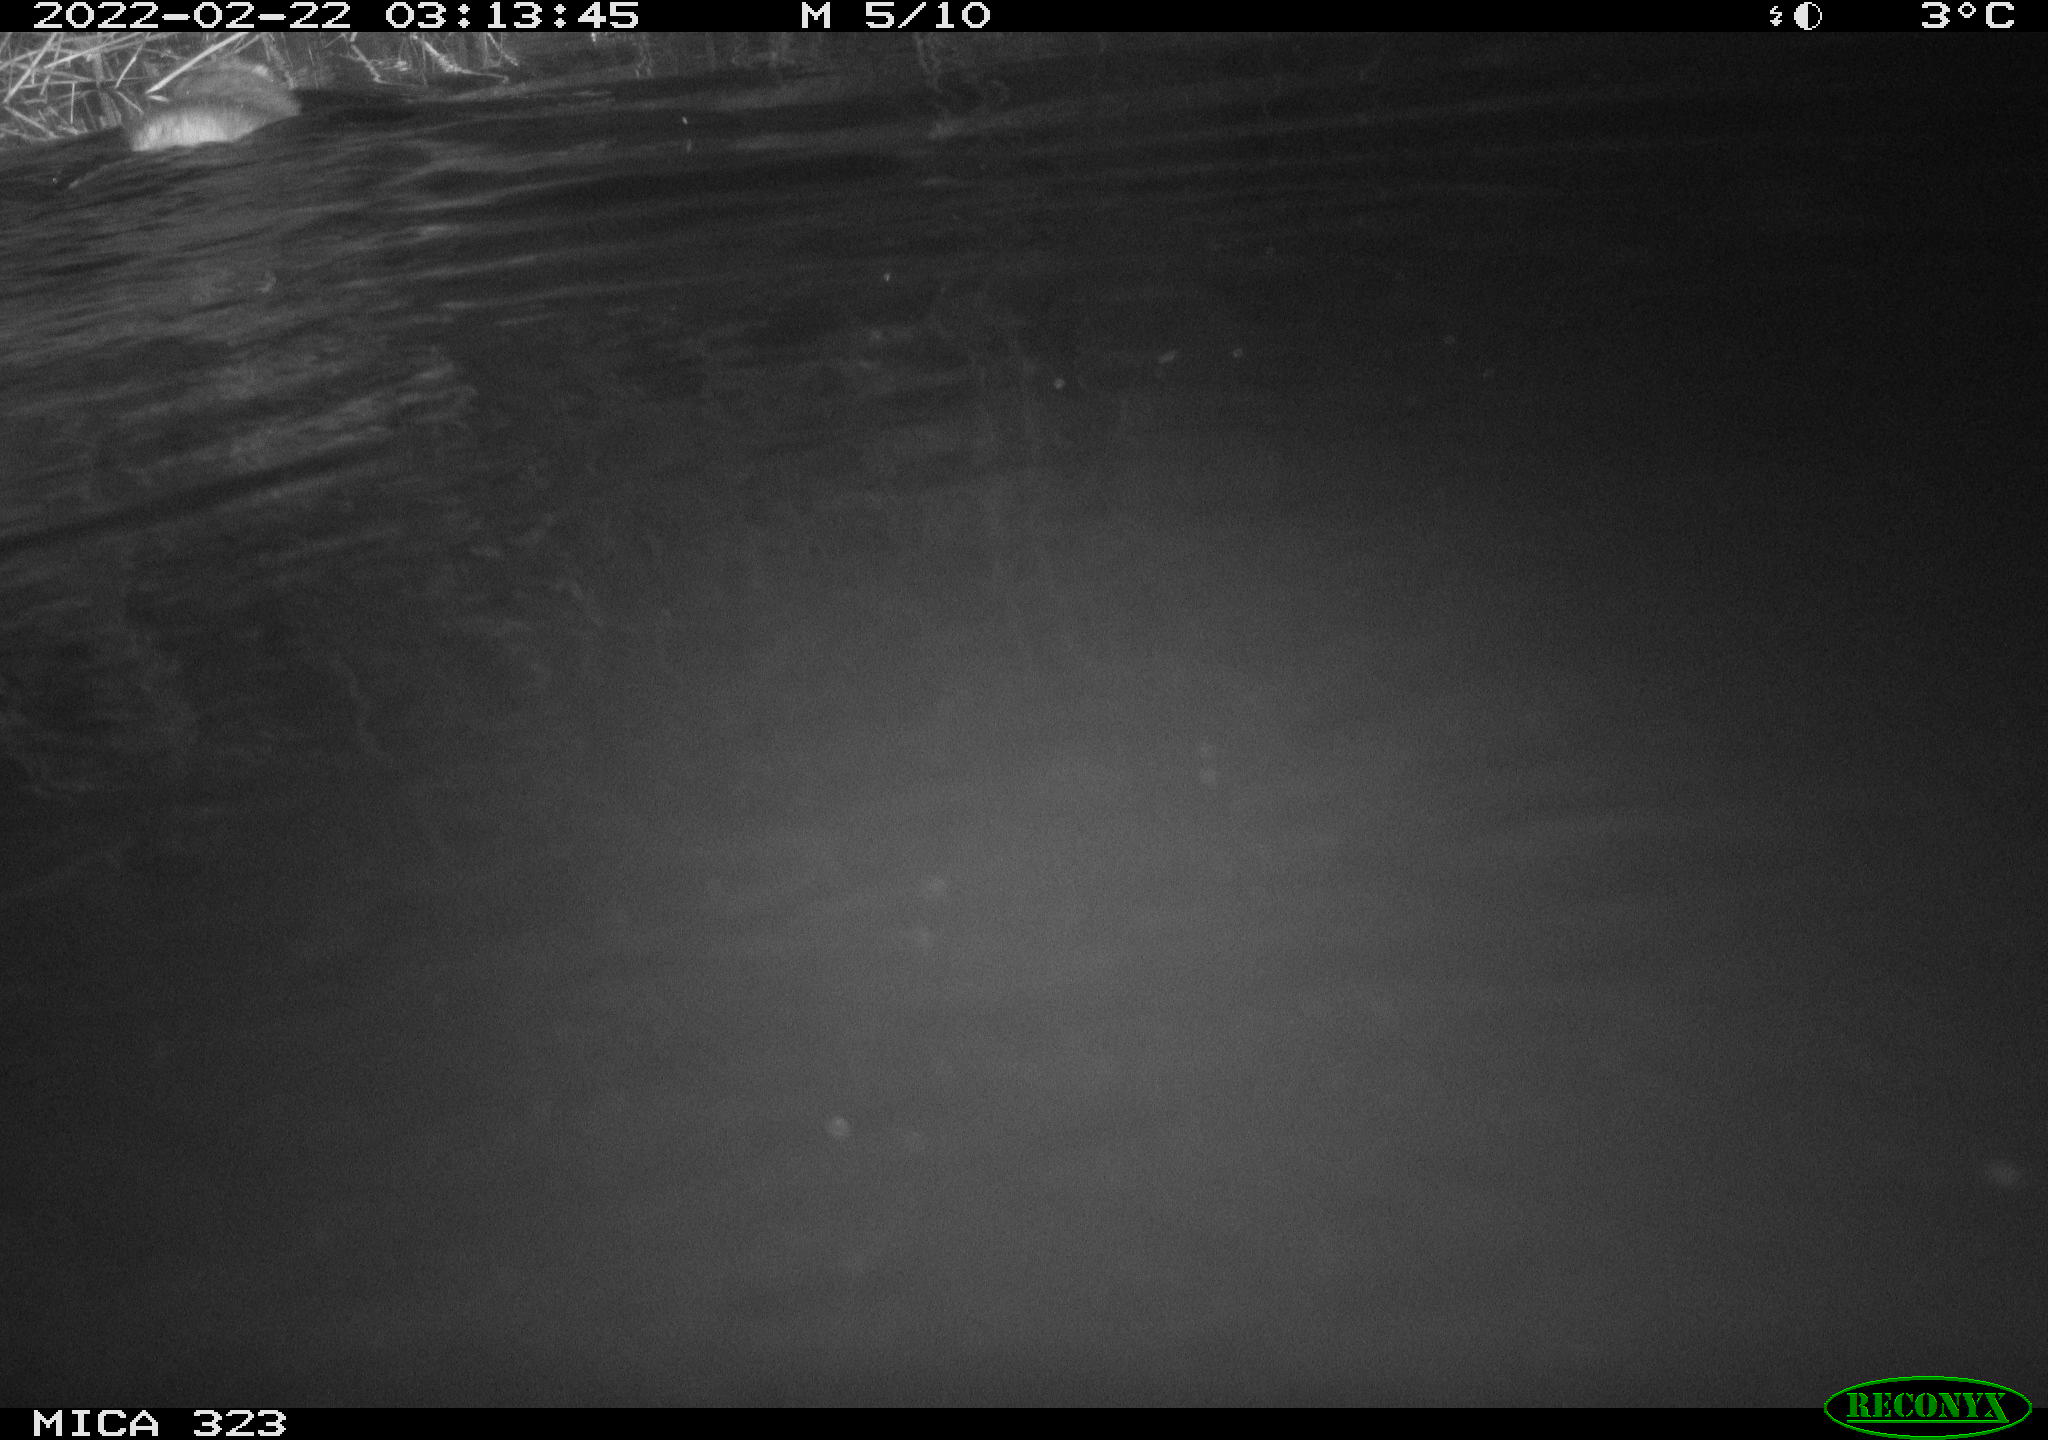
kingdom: Animalia
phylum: Chordata
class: Mammalia
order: Rodentia
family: Cricetidae
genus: Ondatra
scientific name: Ondatra zibethicus
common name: Muskrat
